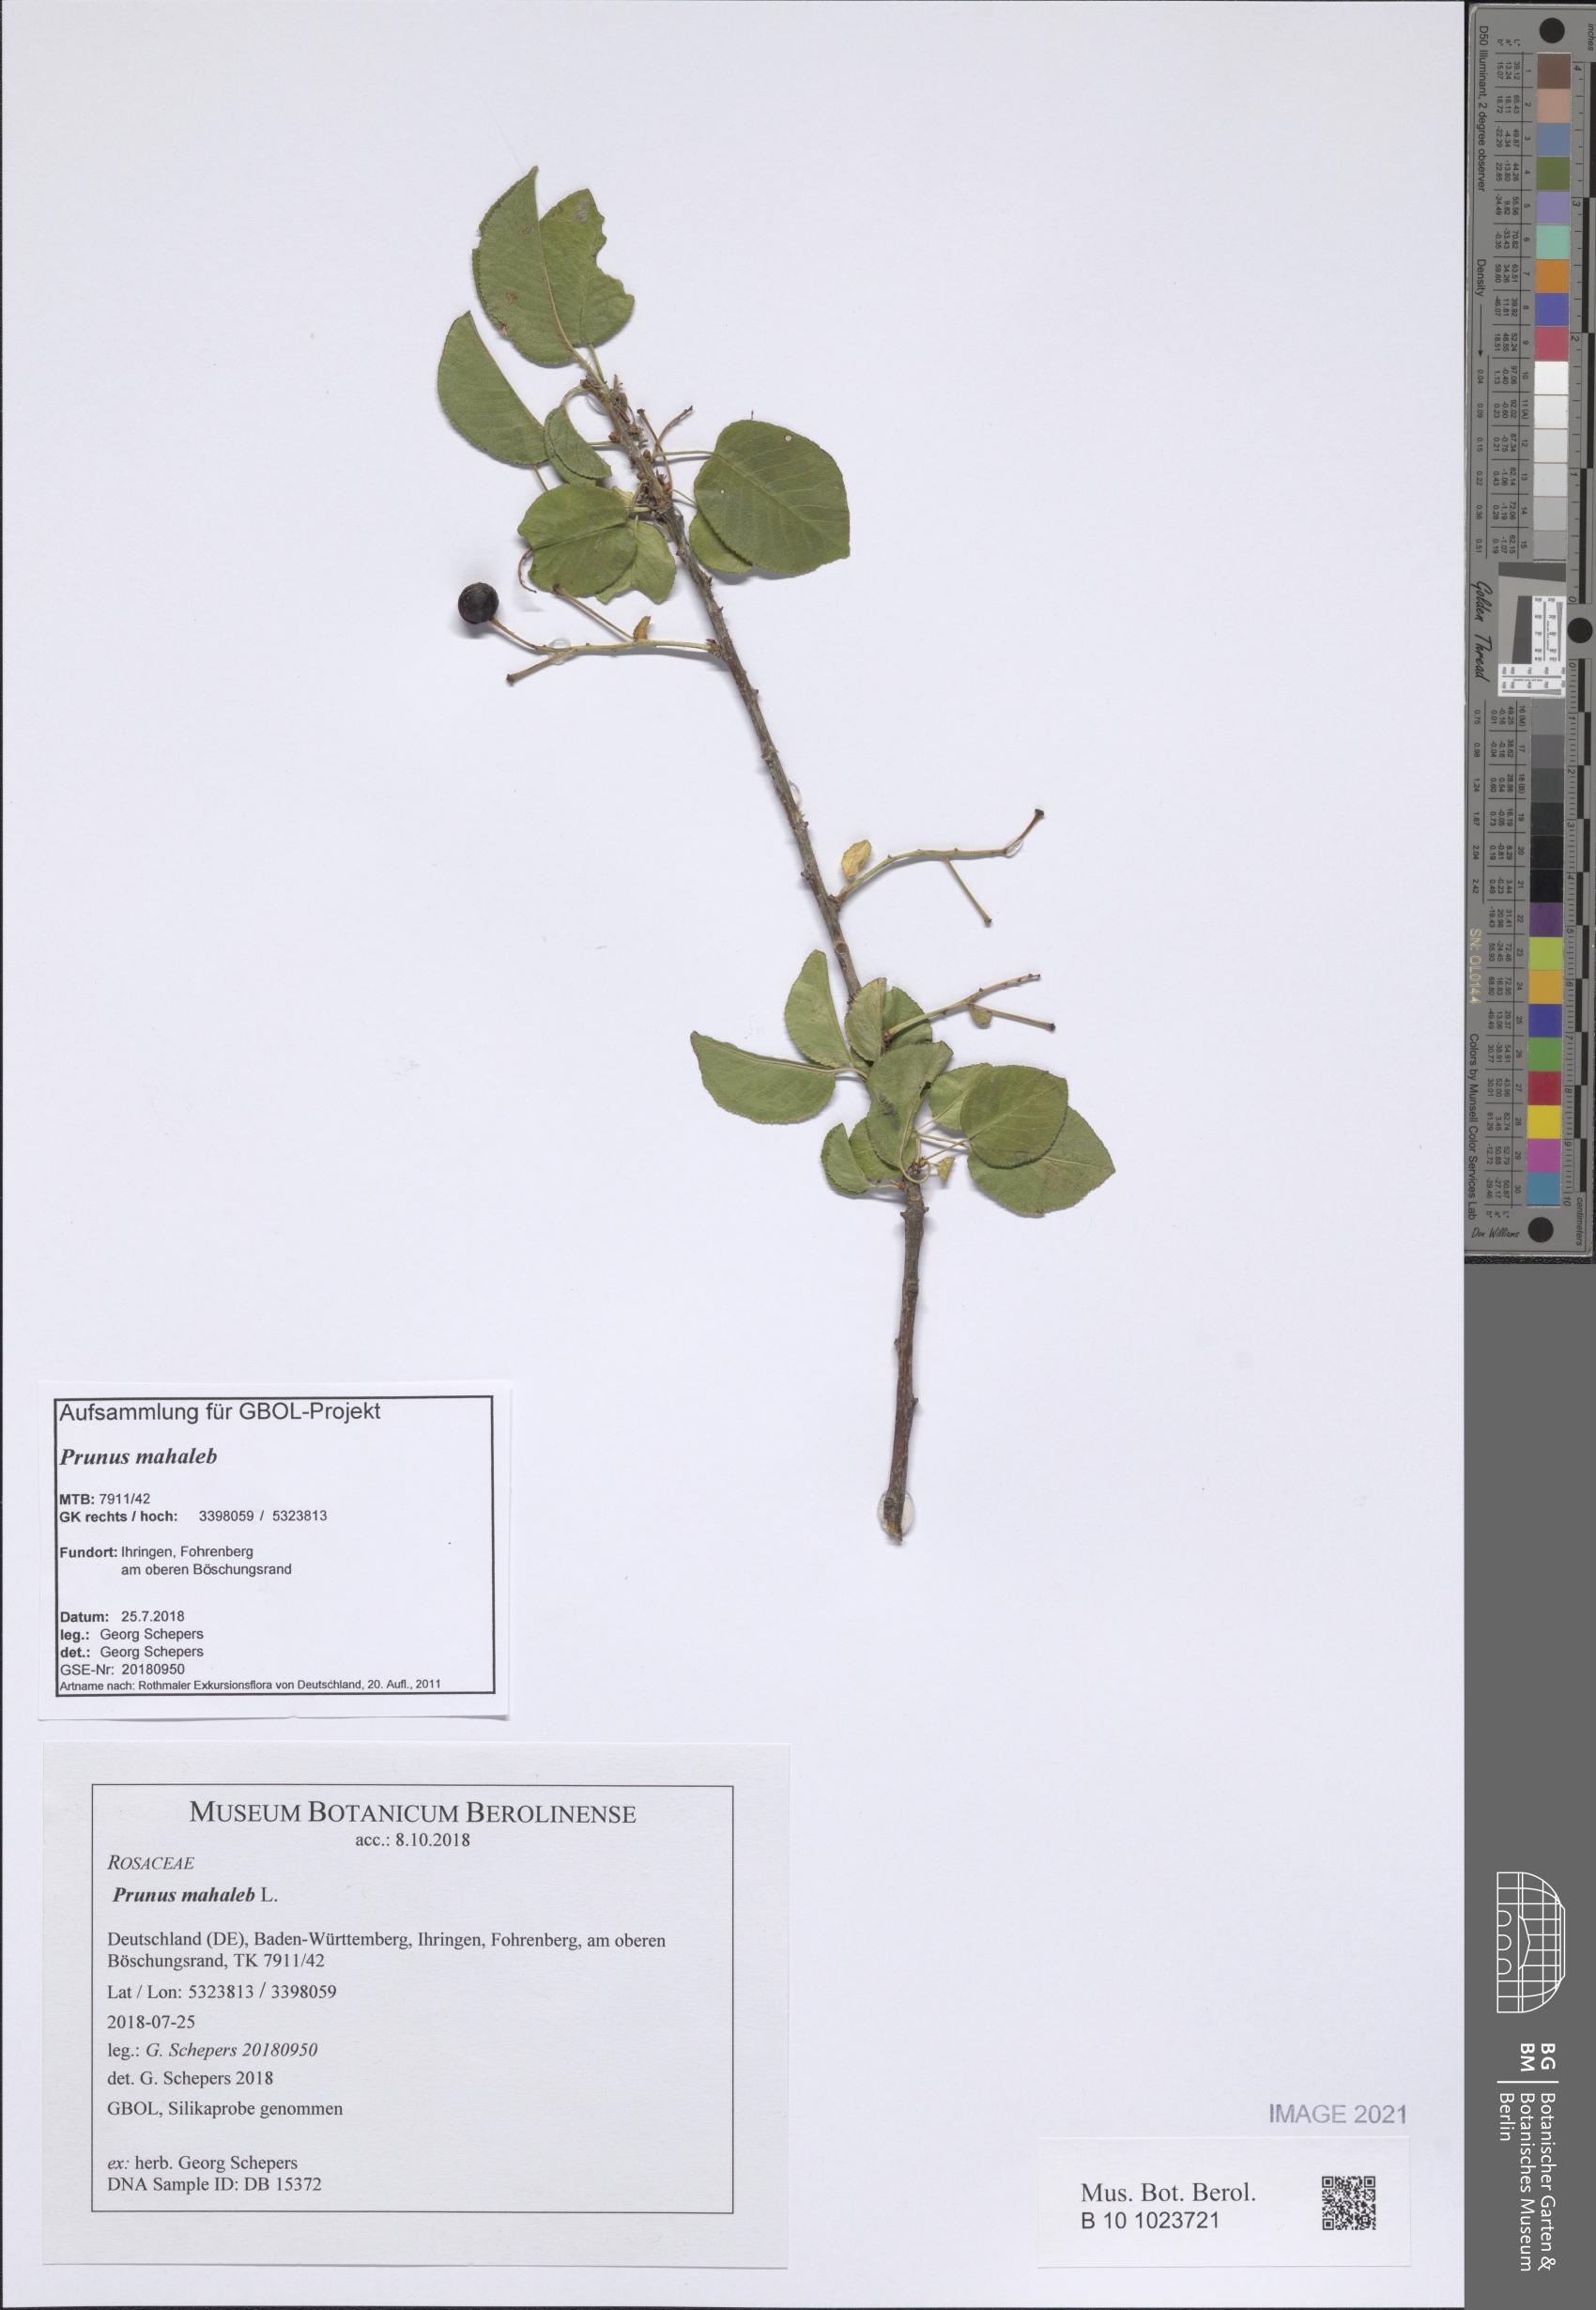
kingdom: Plantae
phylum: Tracheophyta
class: Magnoliopsida
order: Rosales
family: Rosaceae
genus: Prunus
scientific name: Prunus mahaleb
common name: Mahaleb cherry
